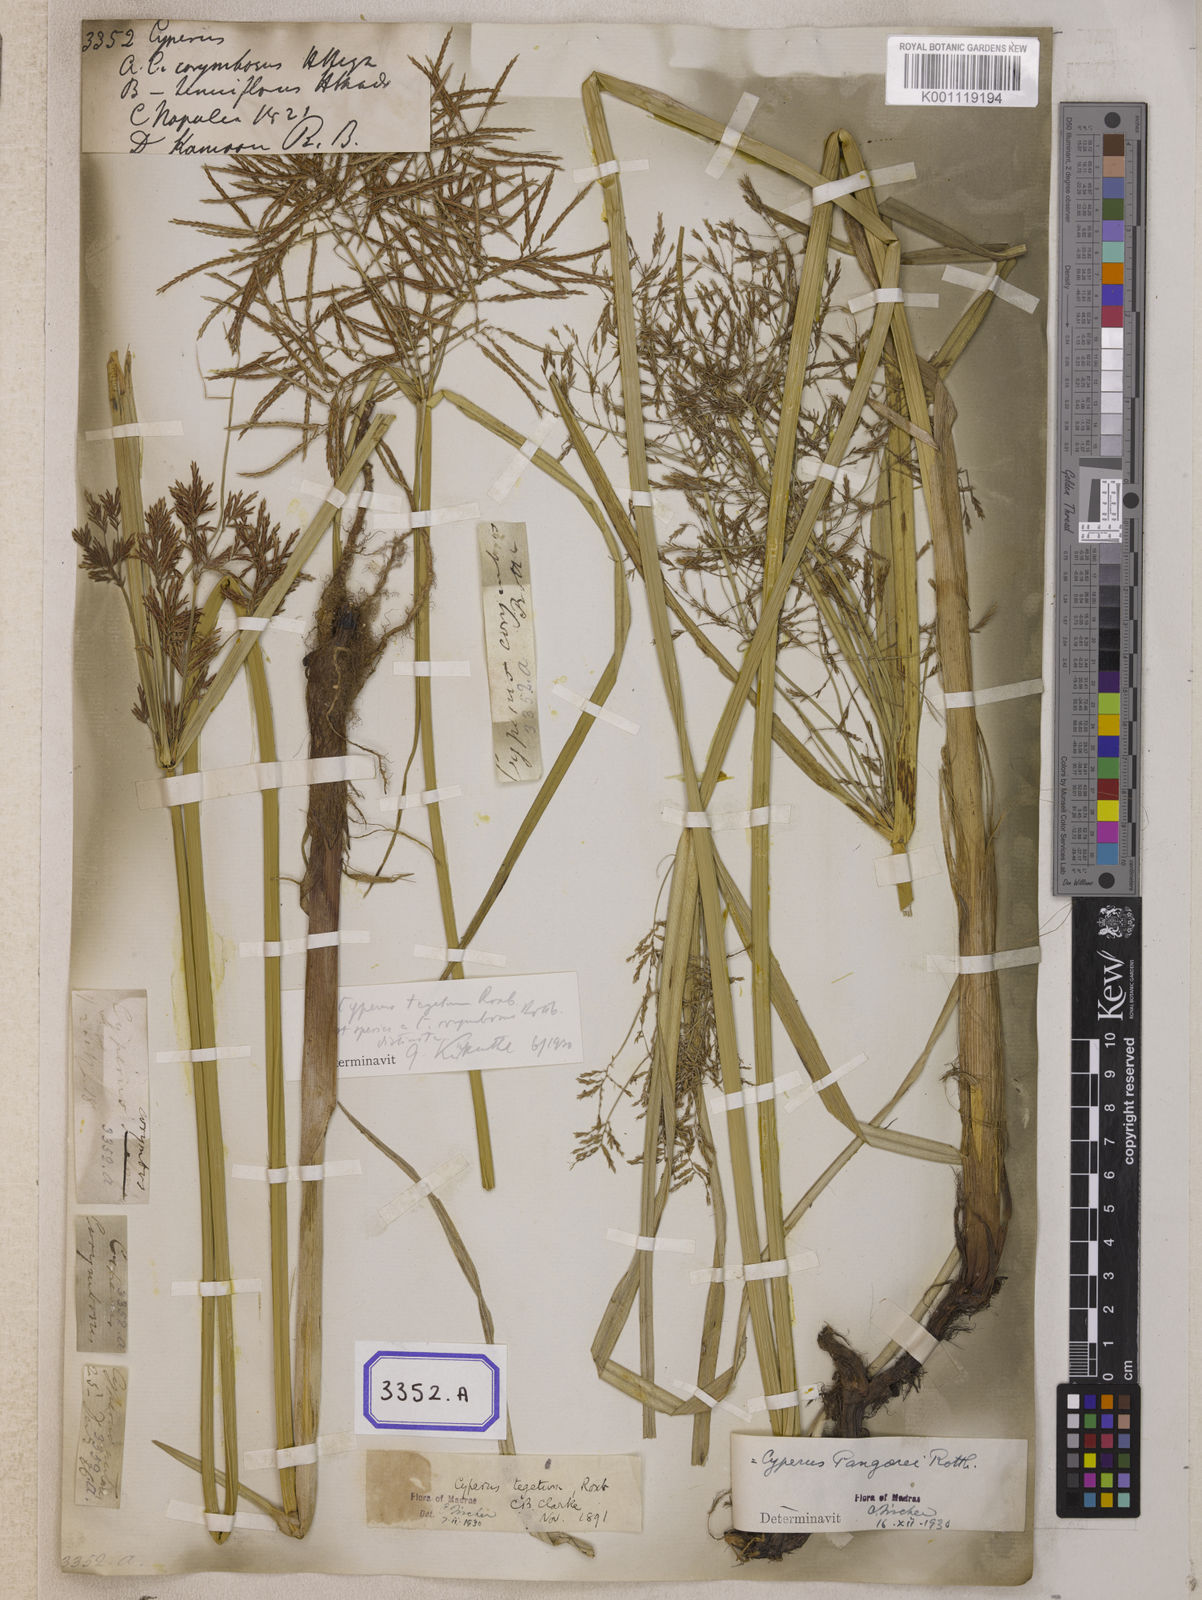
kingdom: Plantae
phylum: Tracheophyta
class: Liliopsida
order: Poales
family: Cyperaceae
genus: Cyperus
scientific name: Cyperus
